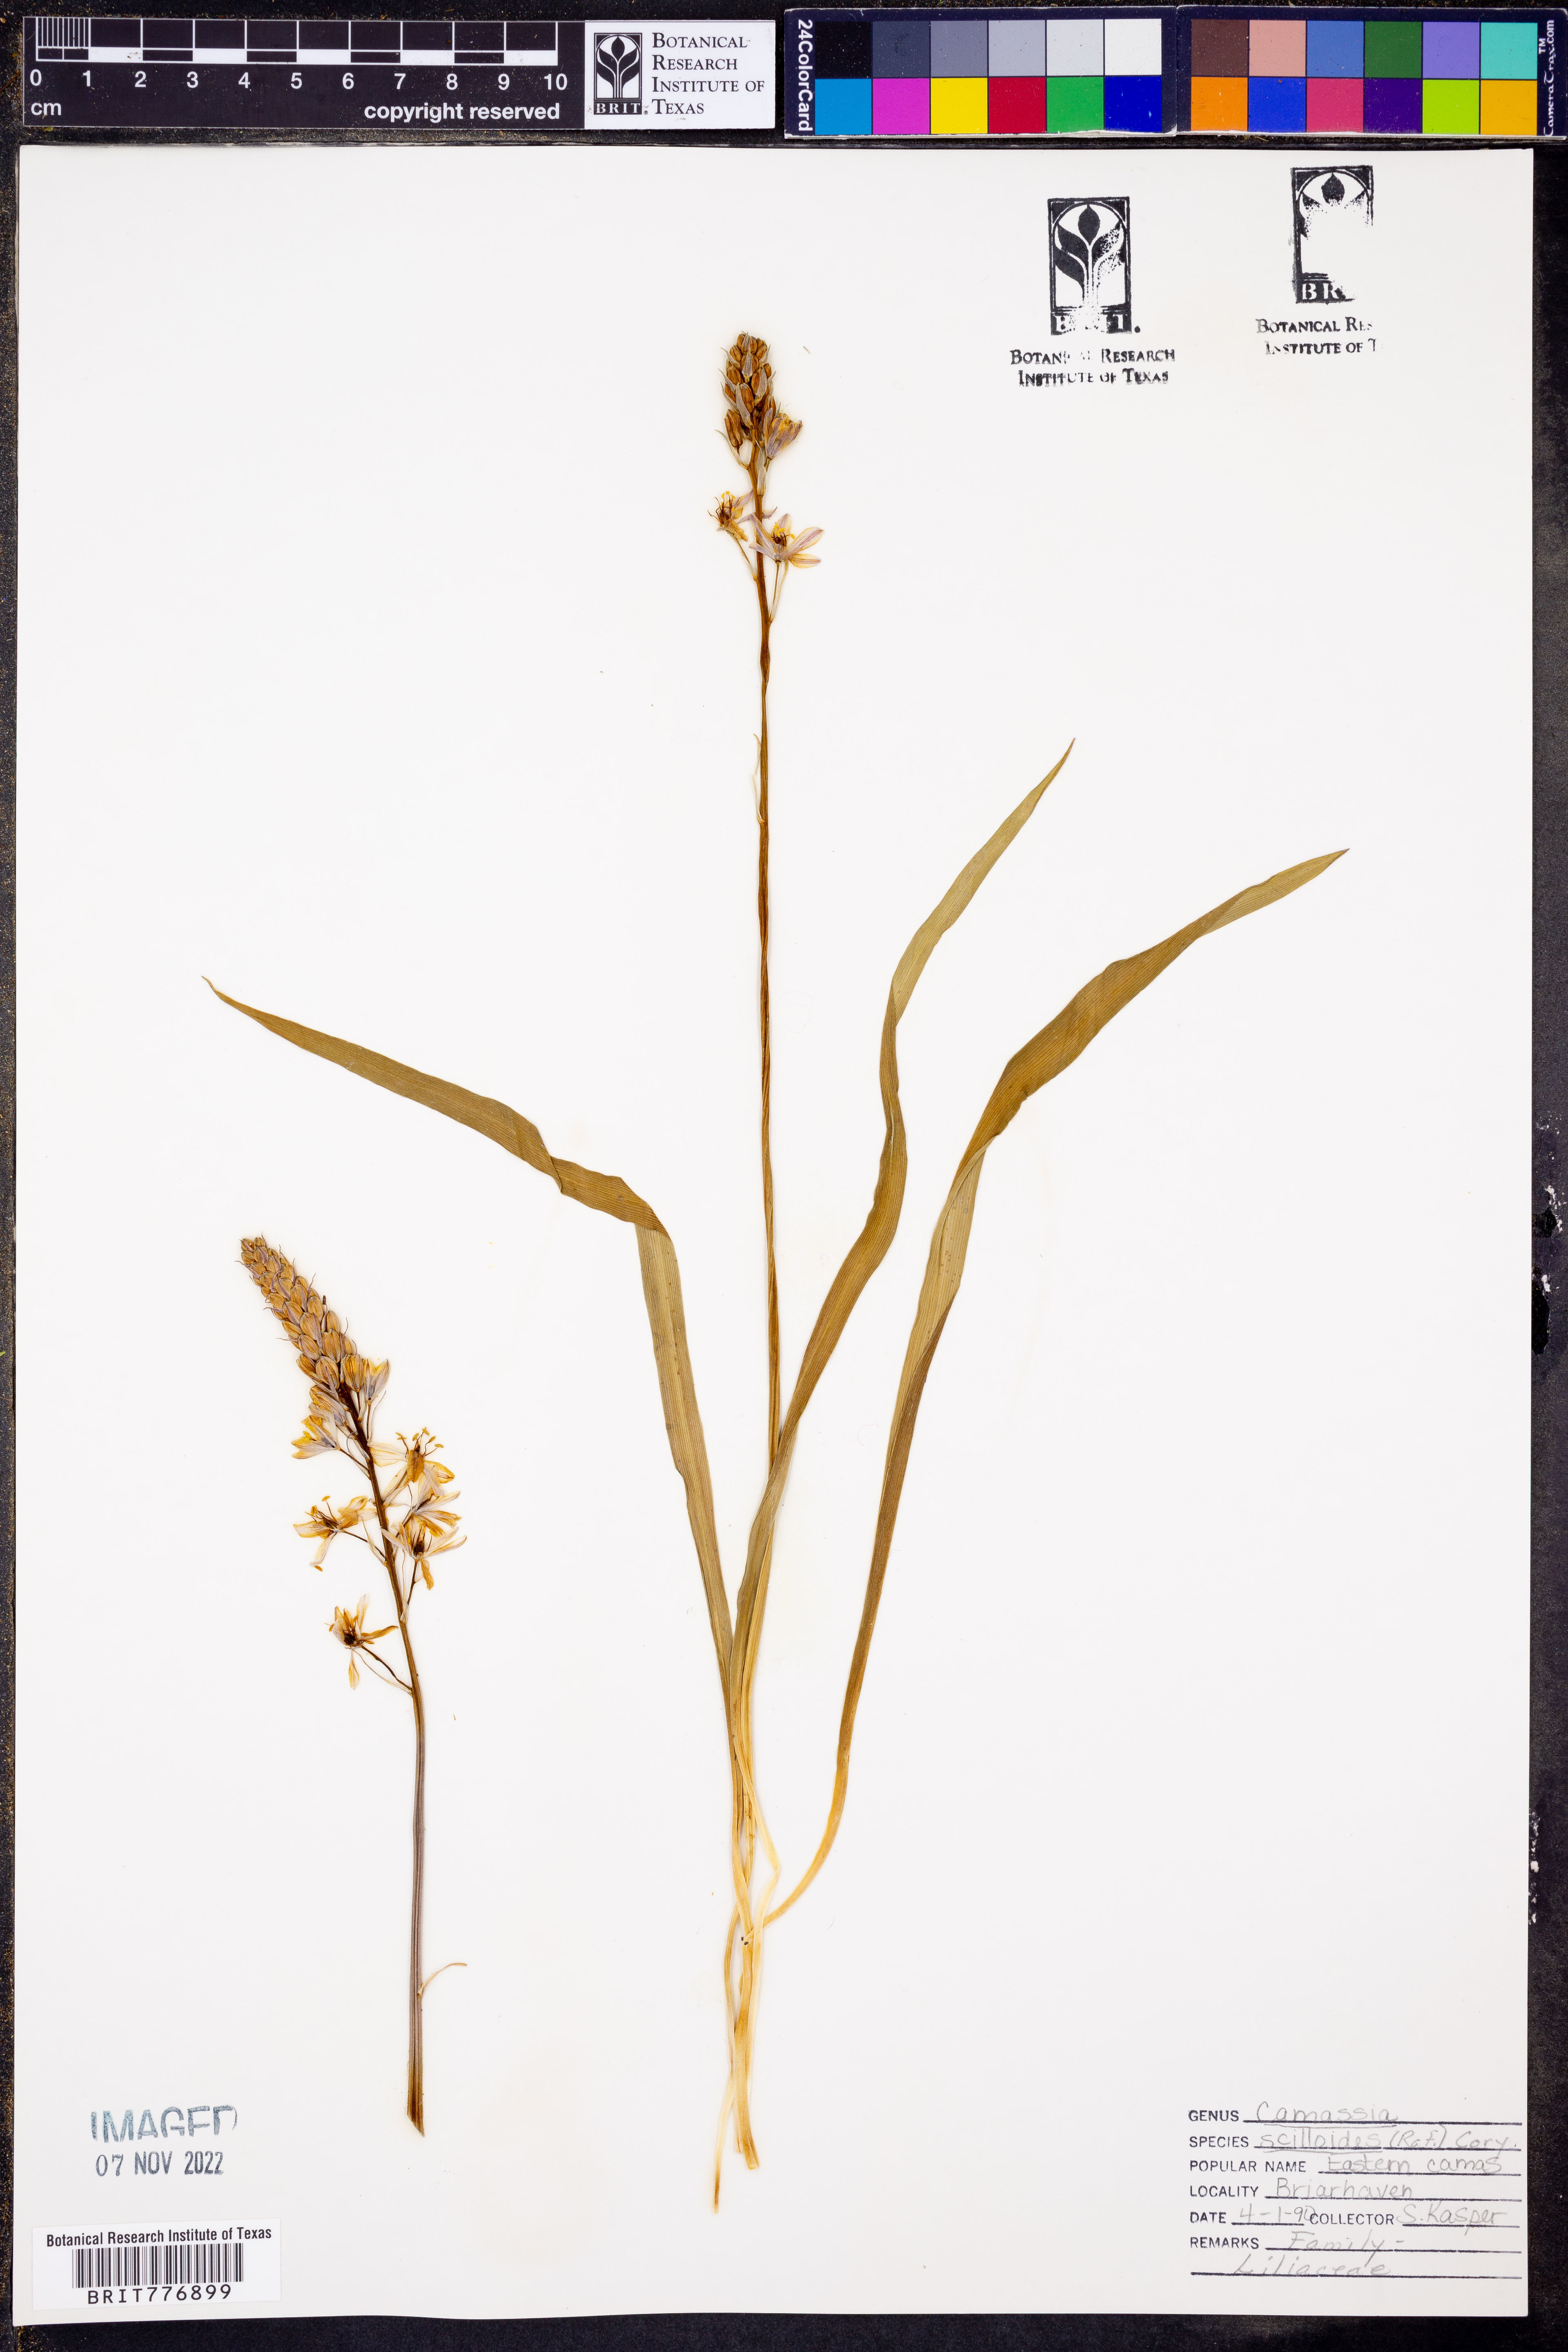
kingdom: Plantae
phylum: Tracheophyta
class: Liliopsida
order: Asparagales
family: Asparagaceae
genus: Camassia
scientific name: Camassia scilloides
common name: Wild hyacinth
